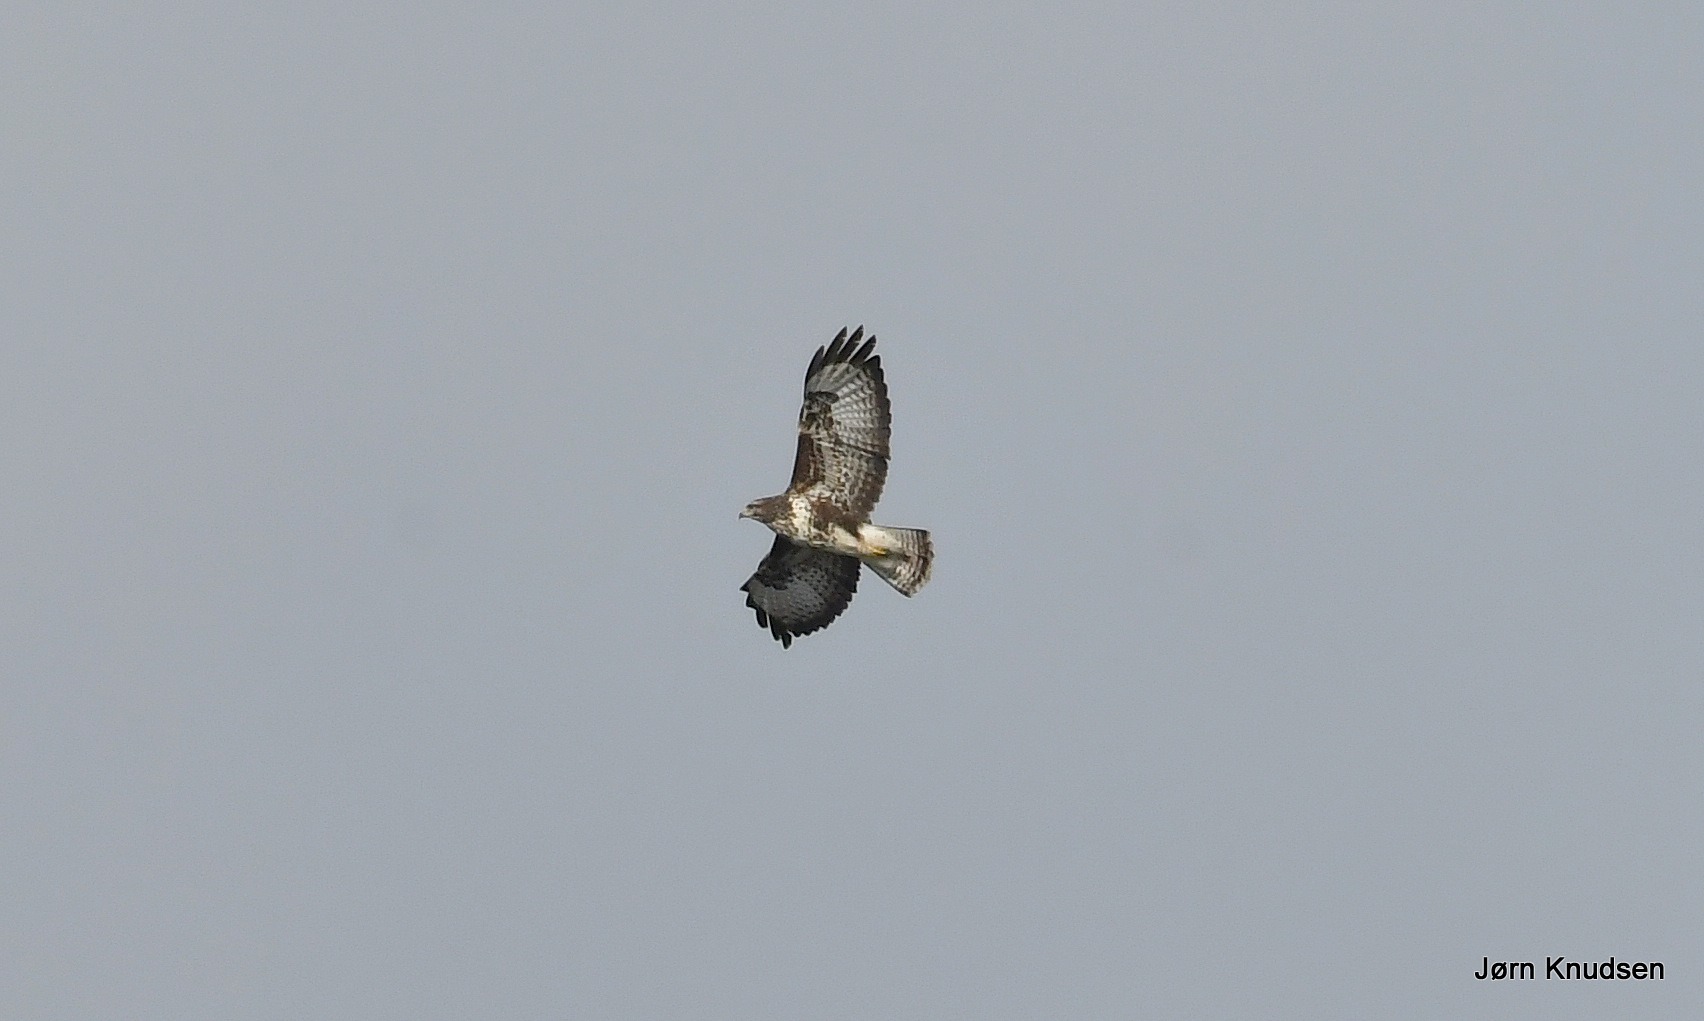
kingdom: Animalia
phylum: Chordata
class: Aves
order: Accipitriformes
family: Accipitridae
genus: Buteo
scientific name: Buteo buteo
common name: Musvåge
